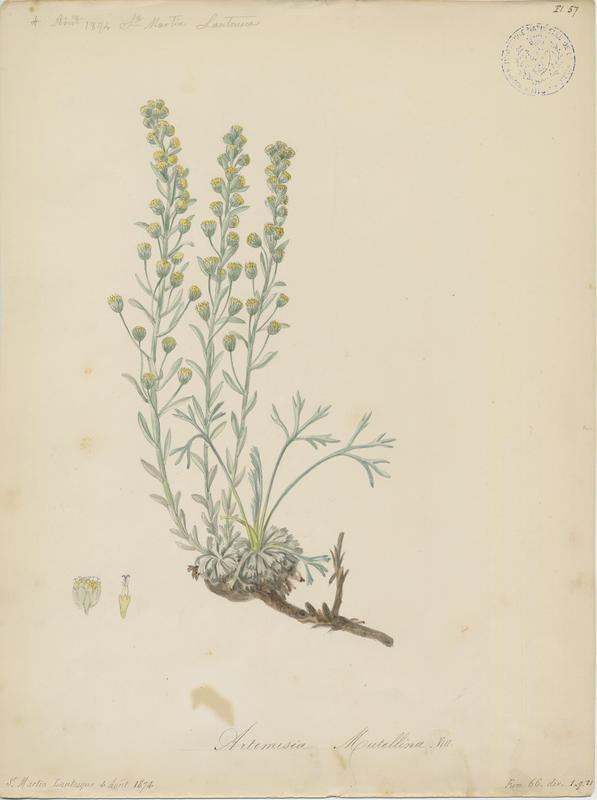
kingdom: Plantae
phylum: Tracheophyta
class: Magnoliopsida
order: Asterales
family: Asteraceae
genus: Artemisia
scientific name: Artemisia mutellina
